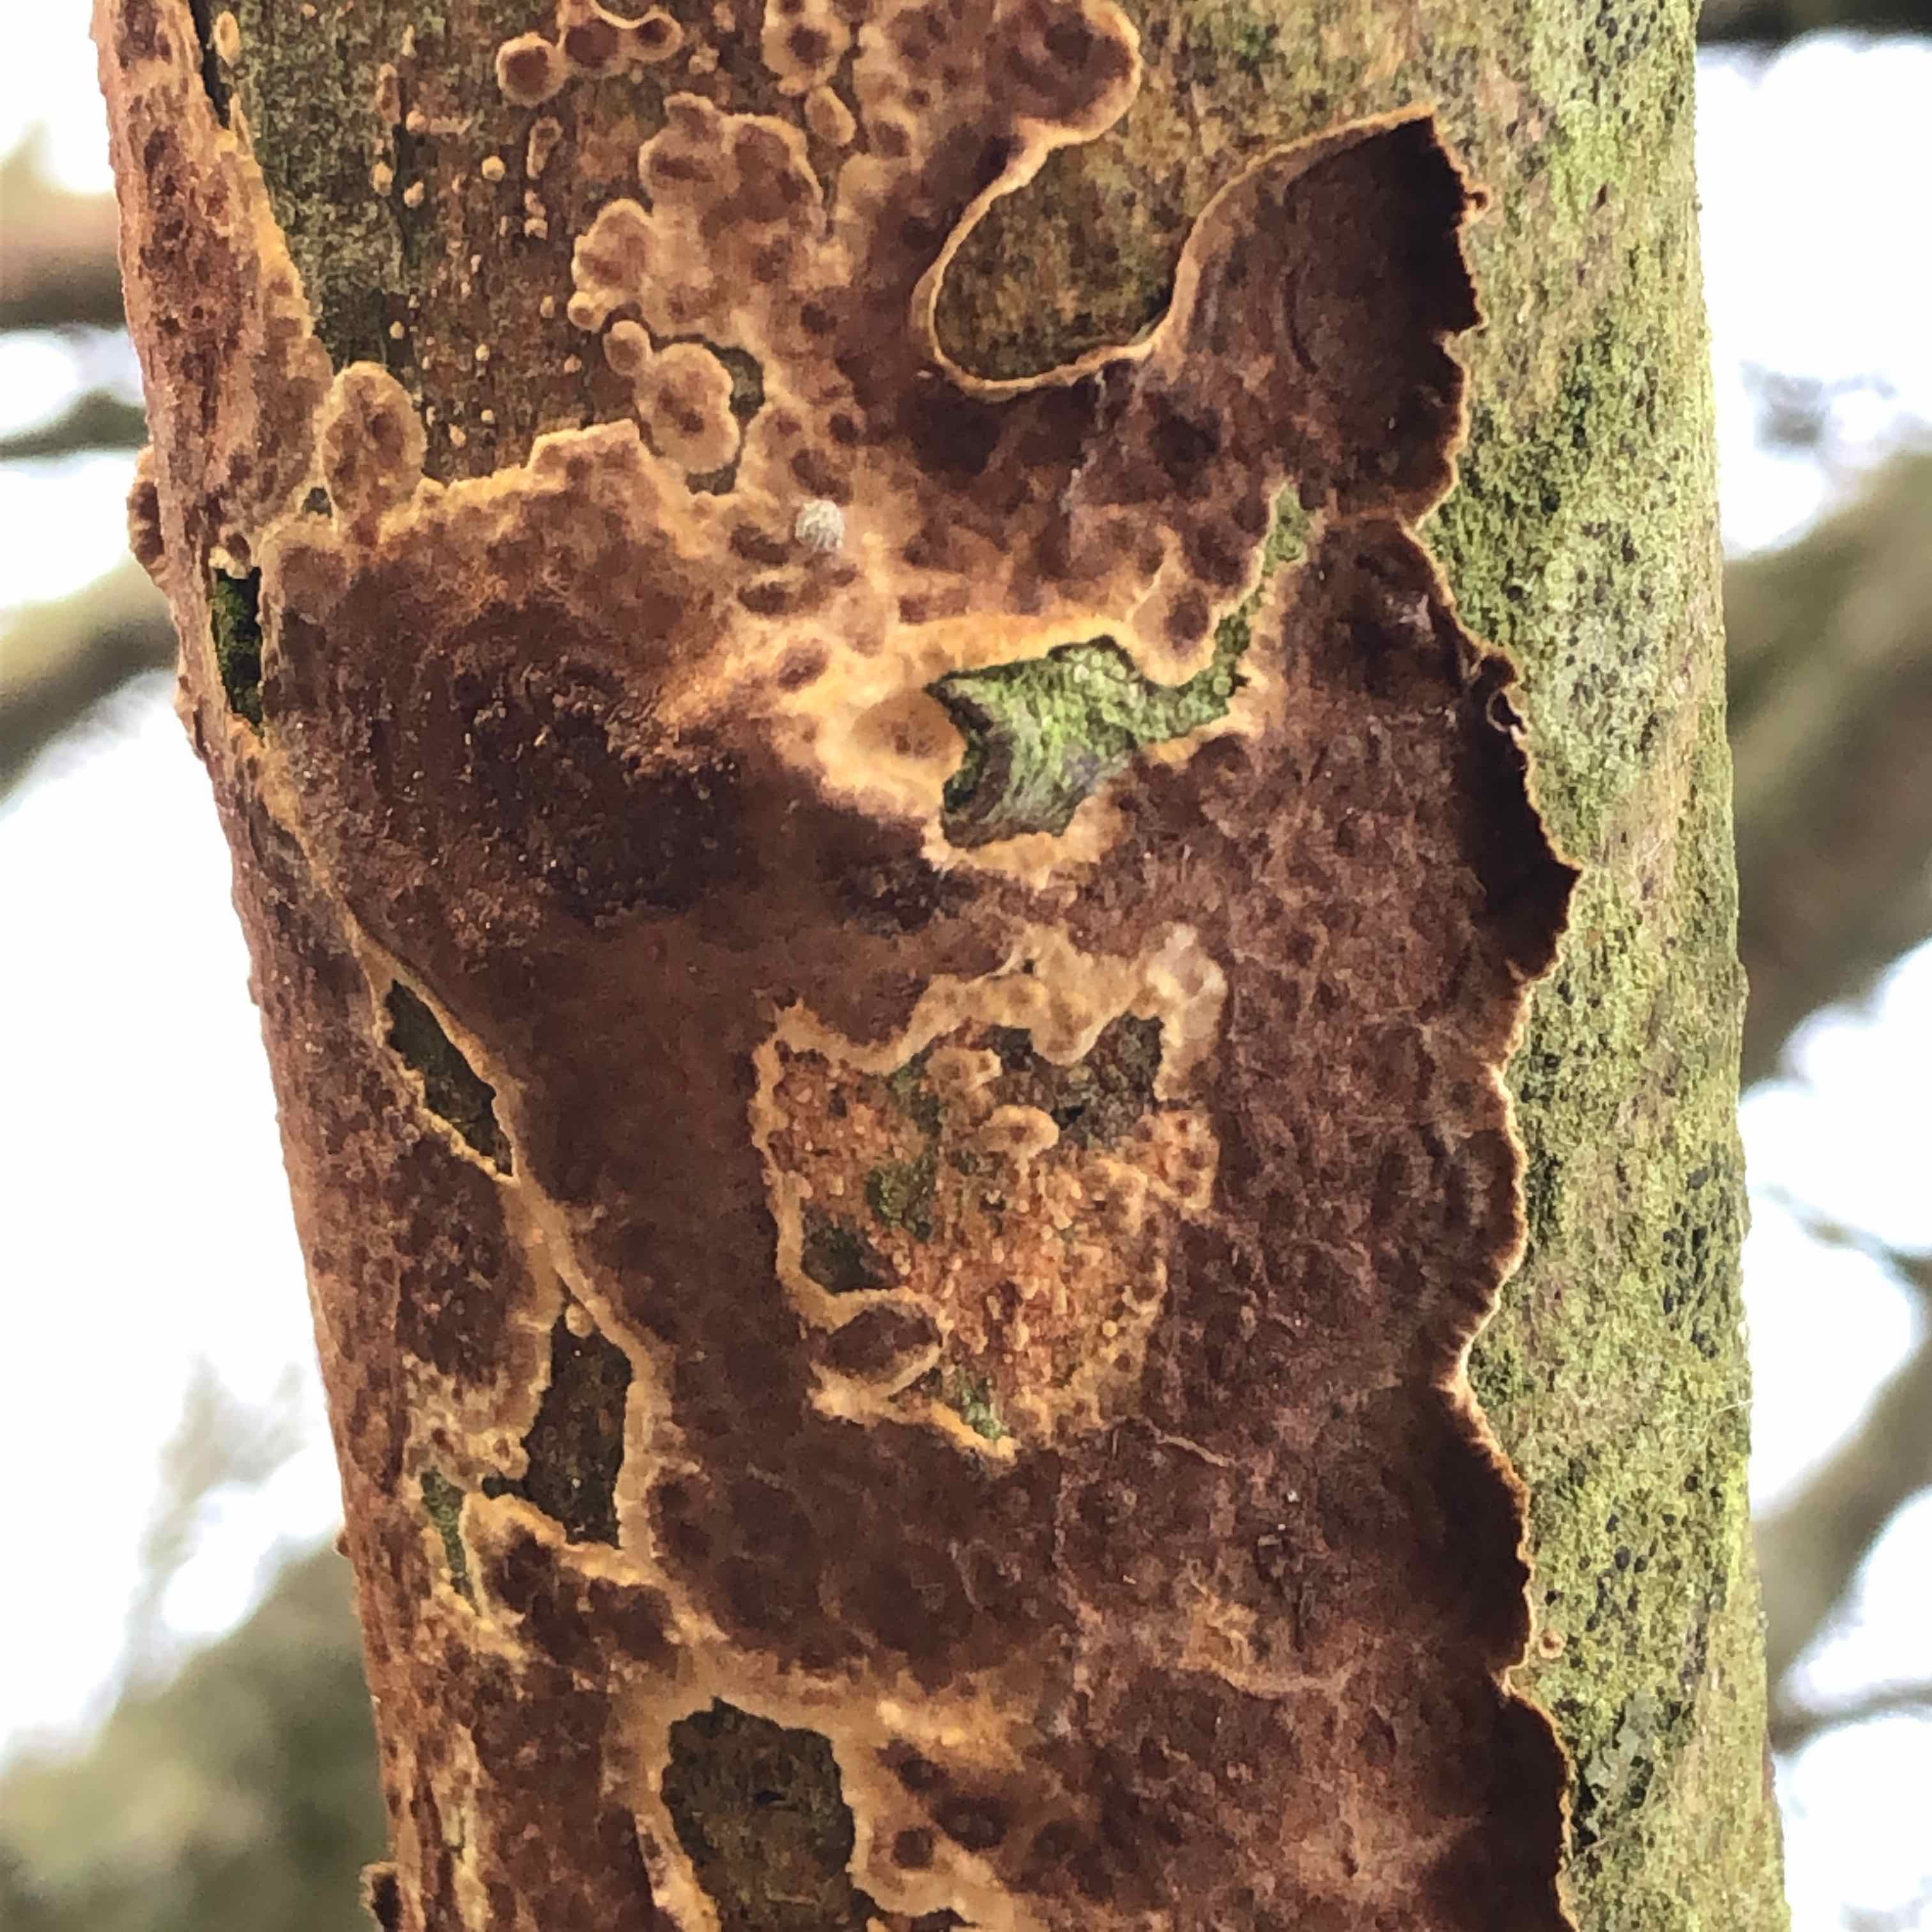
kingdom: Fungi
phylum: Basidiomycota
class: Agaricomycetes
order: Hymenochaetales
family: Hymenochaetaceae
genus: Hydnoporia
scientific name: Hydnoporia tabacina
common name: tobaksbrun ruslædersvamp
